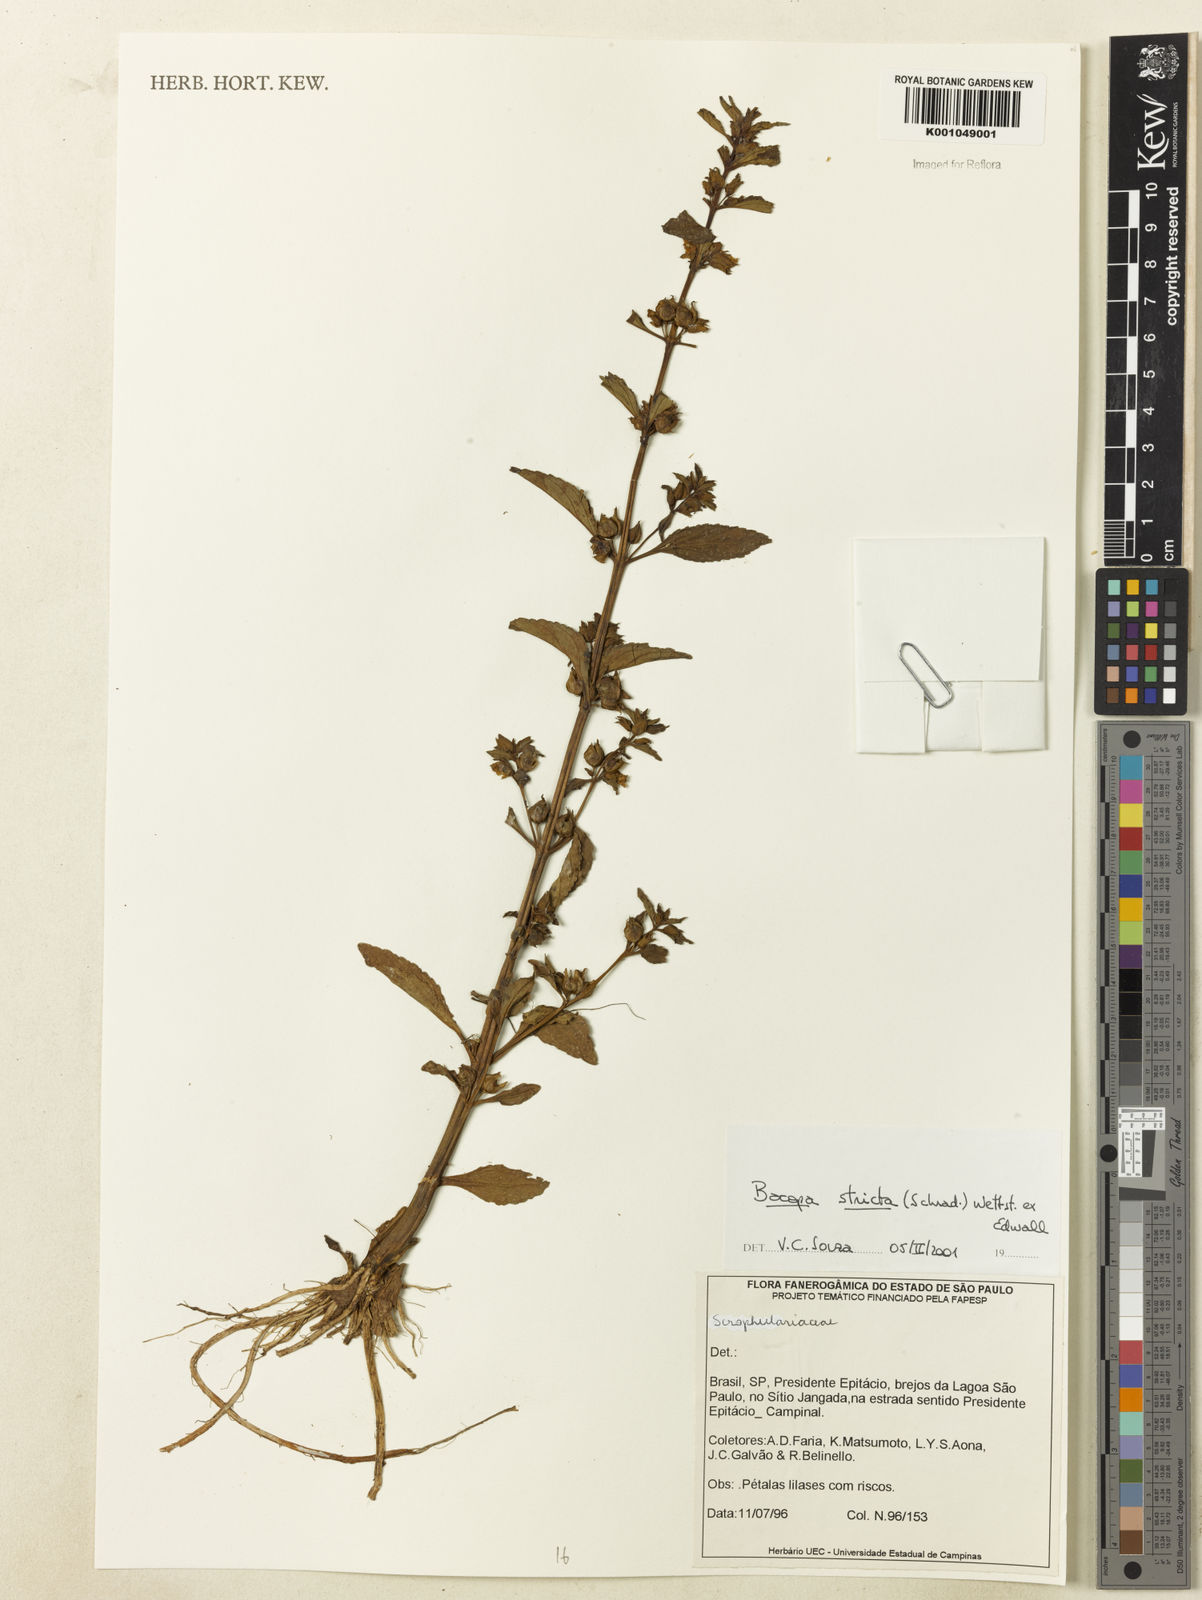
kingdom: Plantae
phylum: Tracheophyta
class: Magnoliopsida
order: Lamiales
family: Plantaginaceae
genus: Bacopa
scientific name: Bacopa stricta
